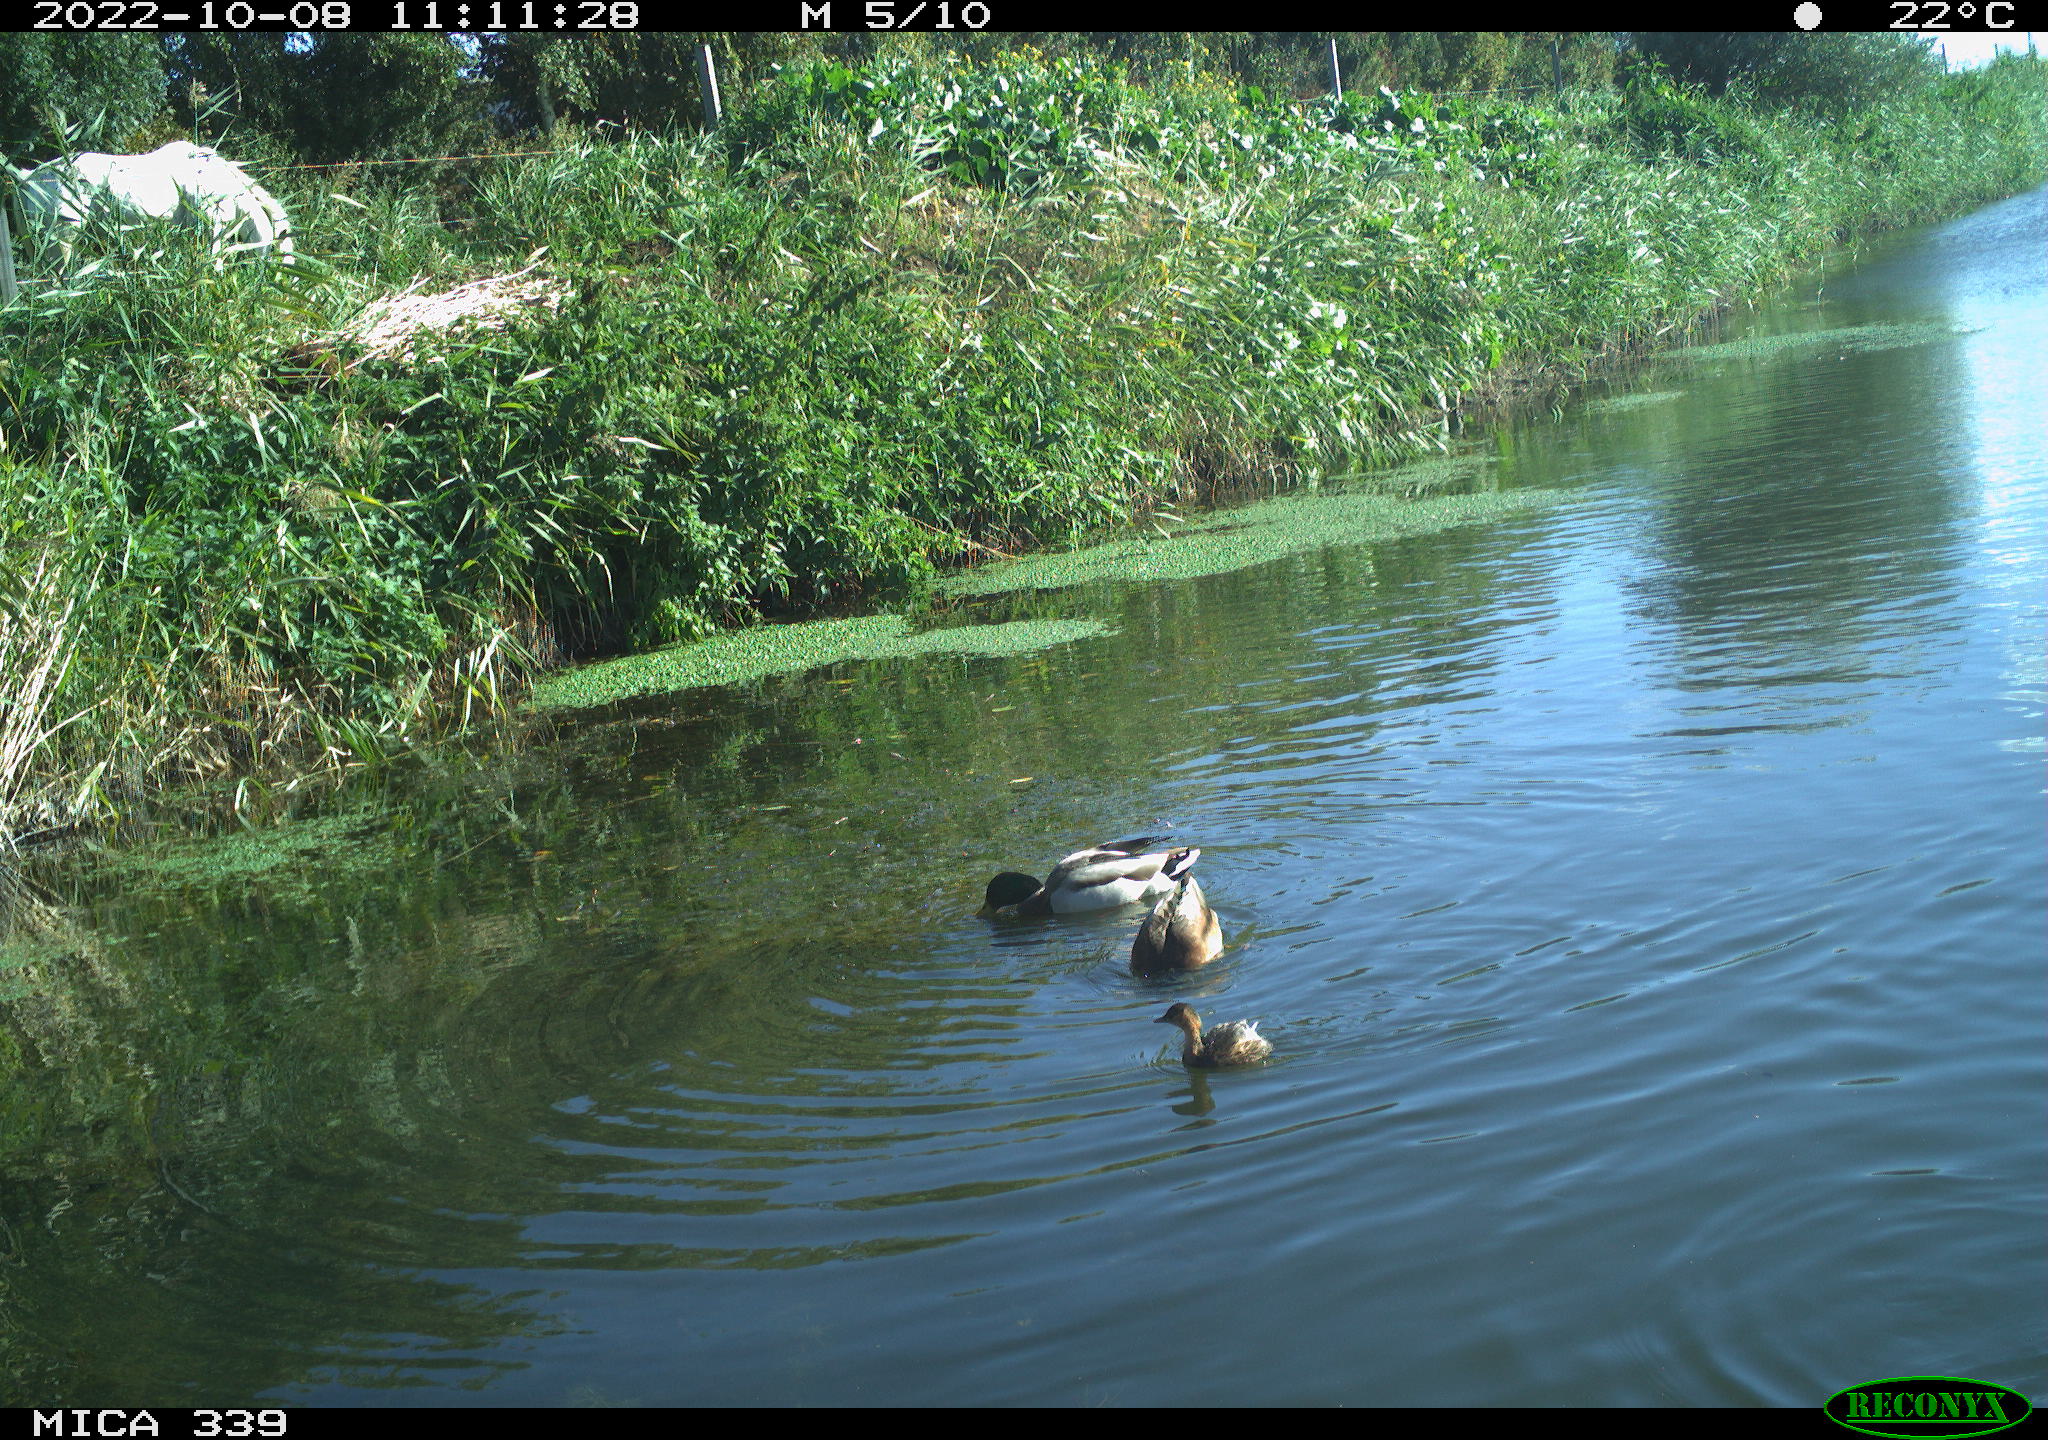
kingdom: Animalia
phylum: Chordata
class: Aves
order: Podicipediformes
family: Podicipedidae
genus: Tachybaptus
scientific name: Tachybaptus ruficollis
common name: Little grebe
